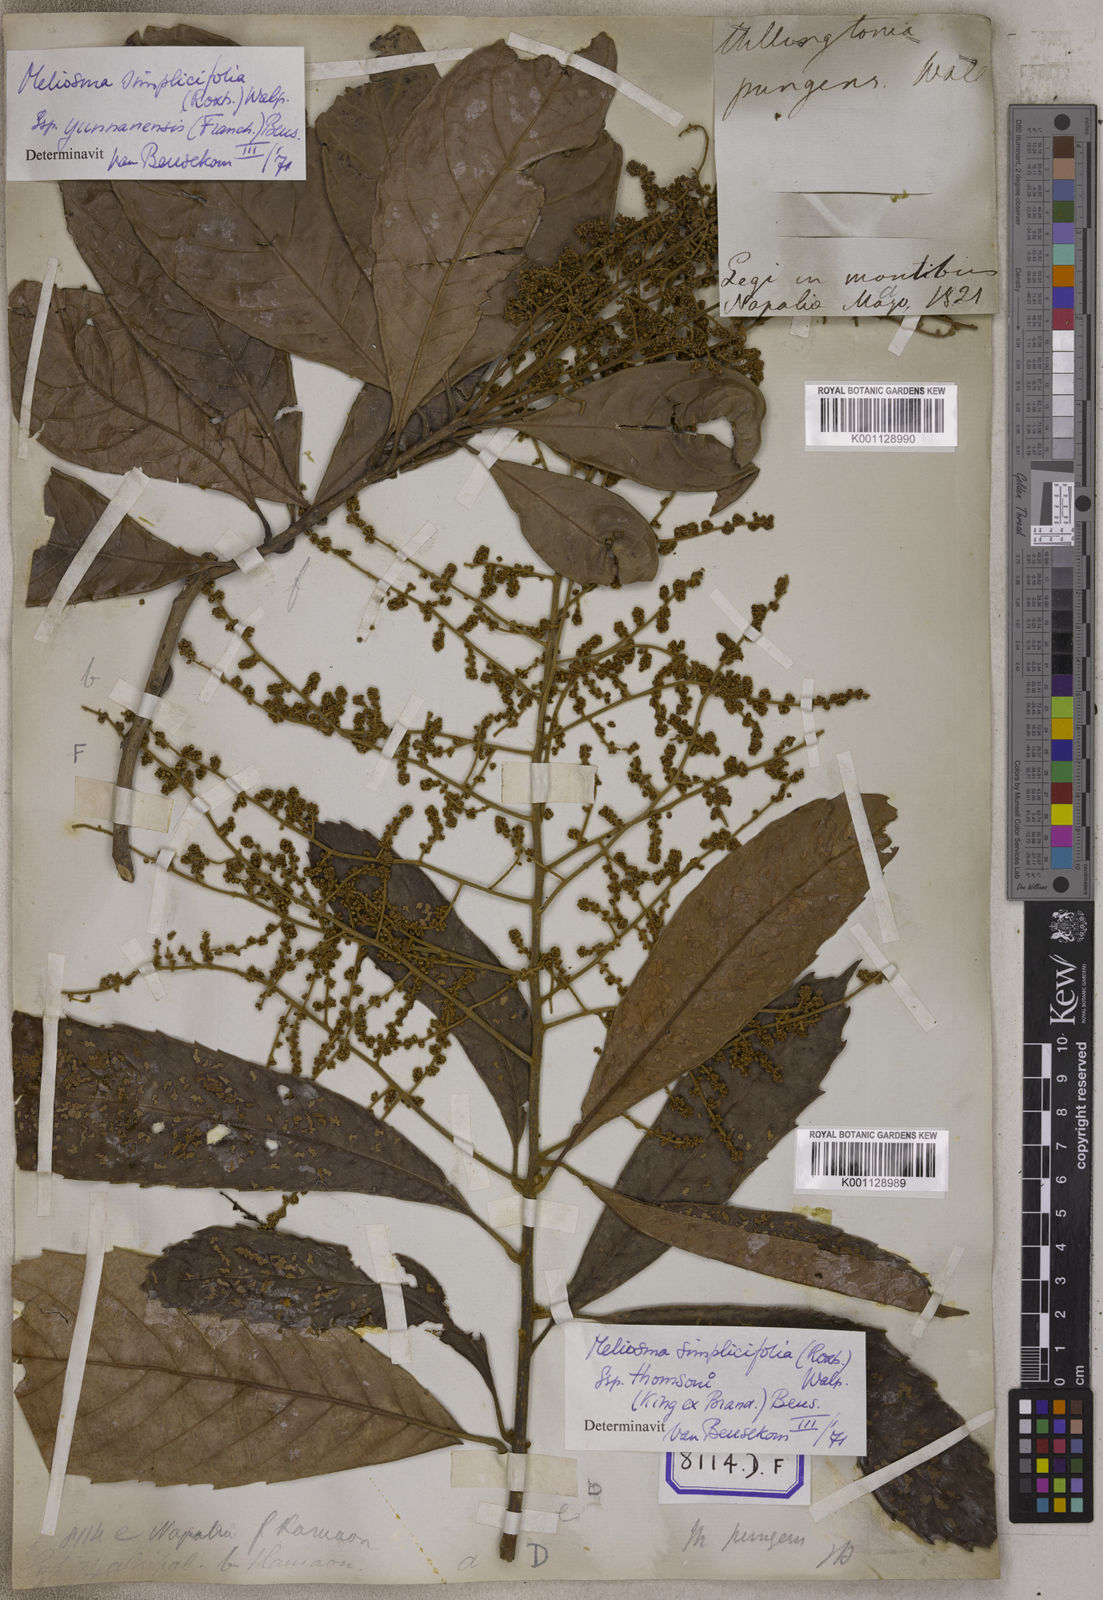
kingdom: Plantae
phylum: Tracheophyta
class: Magnoliopsida
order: Proteales
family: Sabiaceae
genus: Meliosma
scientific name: Meliosma simplicifolia
